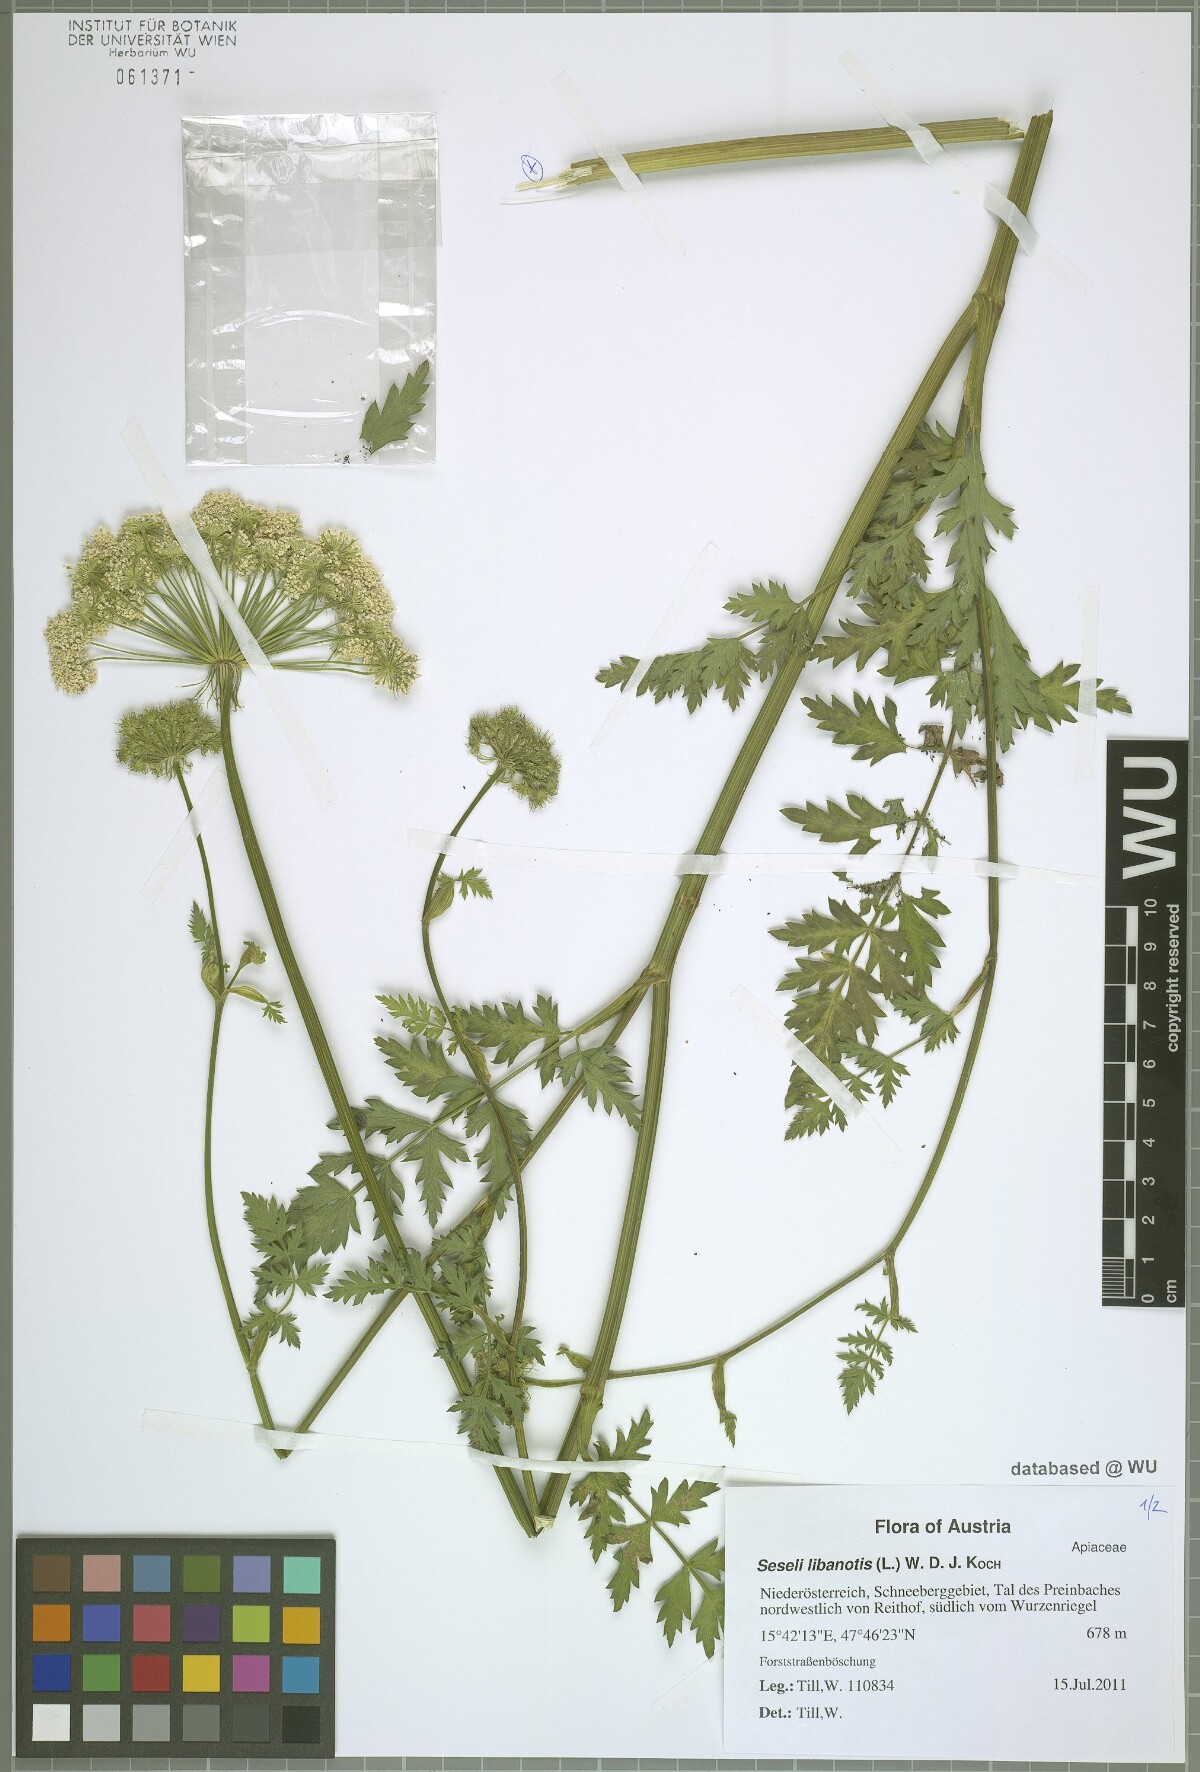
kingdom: Plantae
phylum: Tracheophyta
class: Magnoliopsida
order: Apiales
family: Apiaceae
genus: Seseli
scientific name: Seseli libanotis
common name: Mooncarrot
